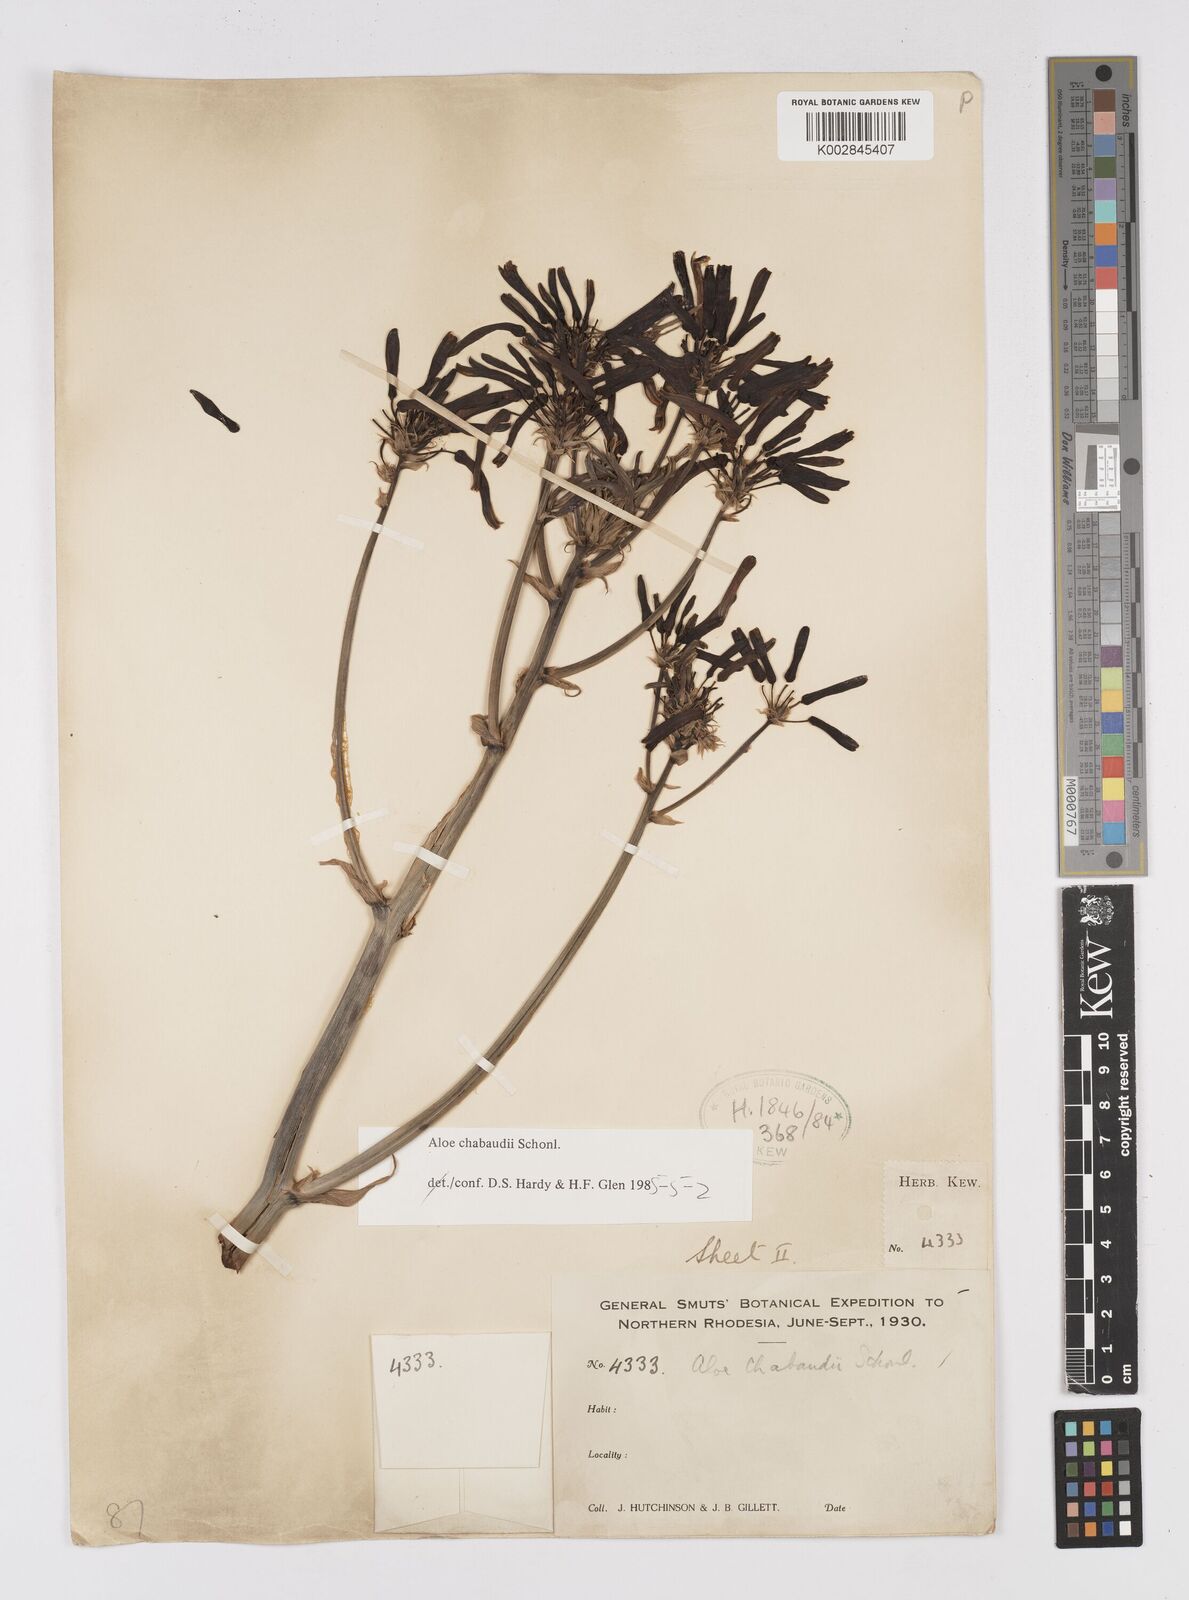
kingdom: Plantae
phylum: Tracheophyta
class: Liliopsida
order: Asparagales
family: Asphodelaceae
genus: Aloe
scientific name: Aloe chabaudii
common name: Chabaud's aloe
